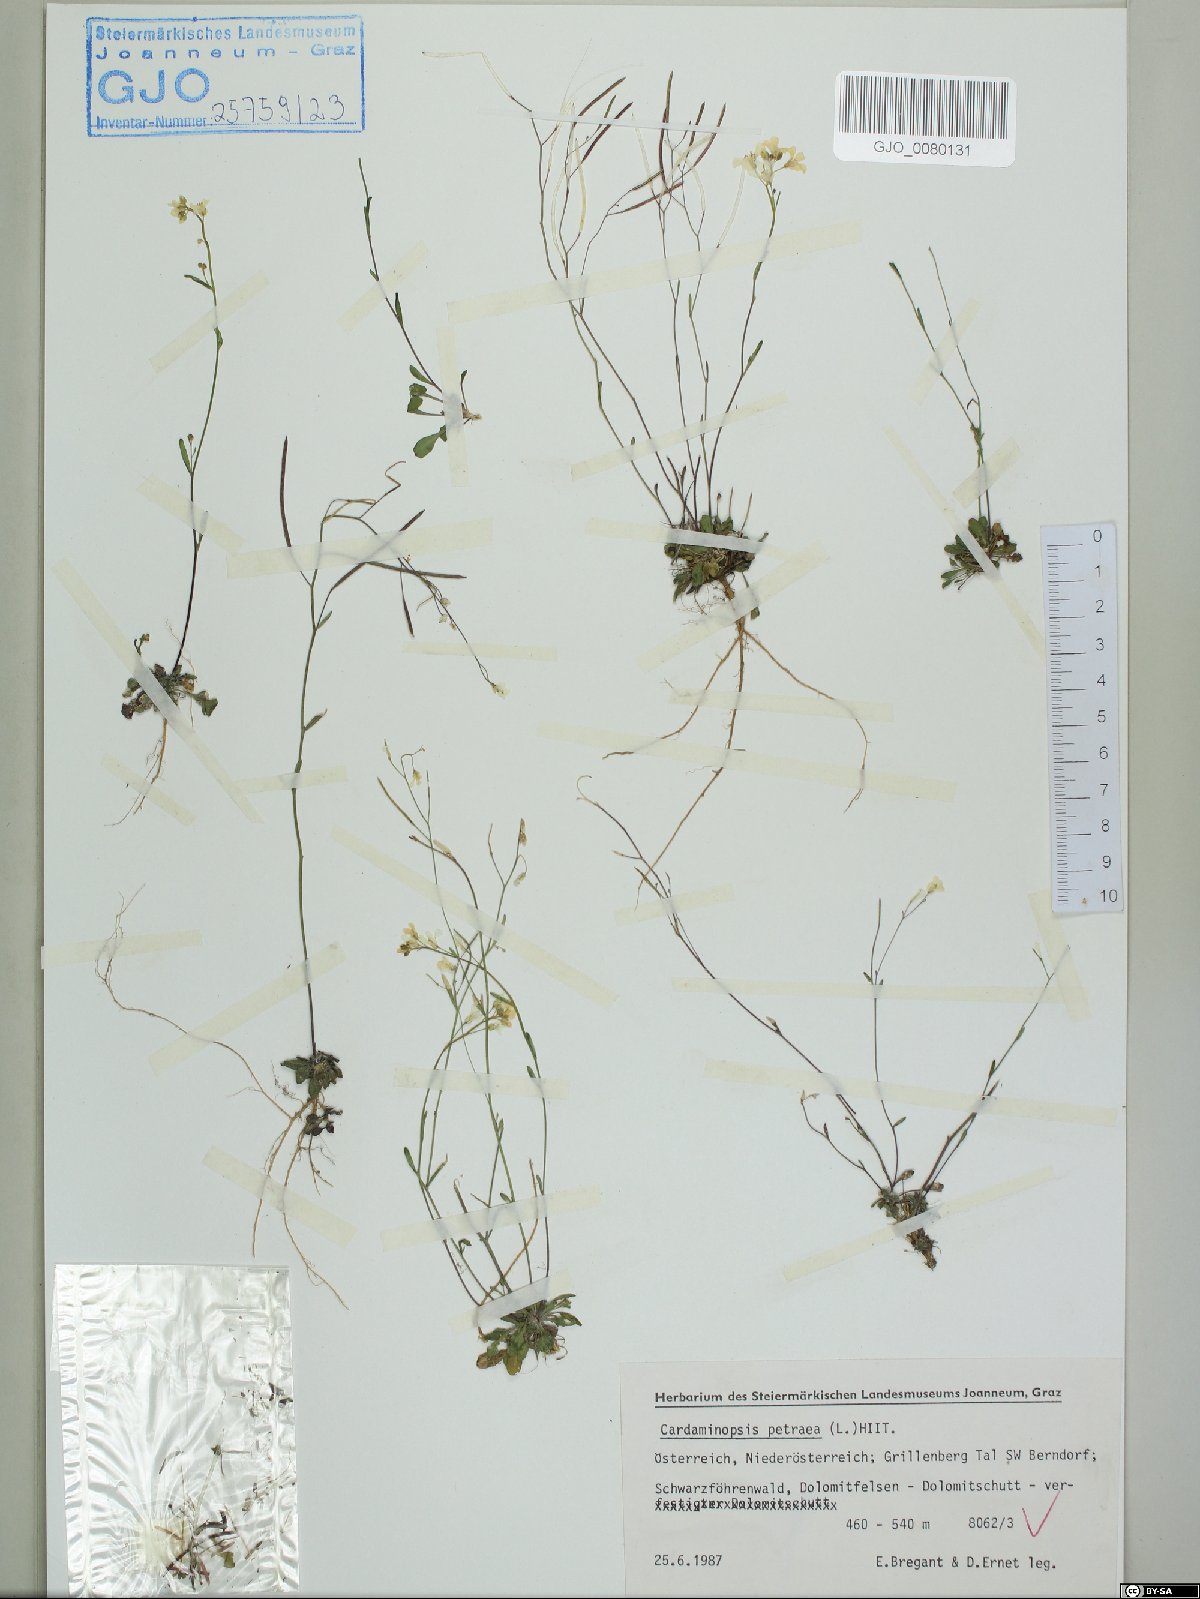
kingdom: Plantae
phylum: Tracheophyta
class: Magnoliopsida
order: Brassicales
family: Brassicaceae
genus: Arabidopsis
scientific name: Arabidopsis lyrata
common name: Lyrate rockcress
